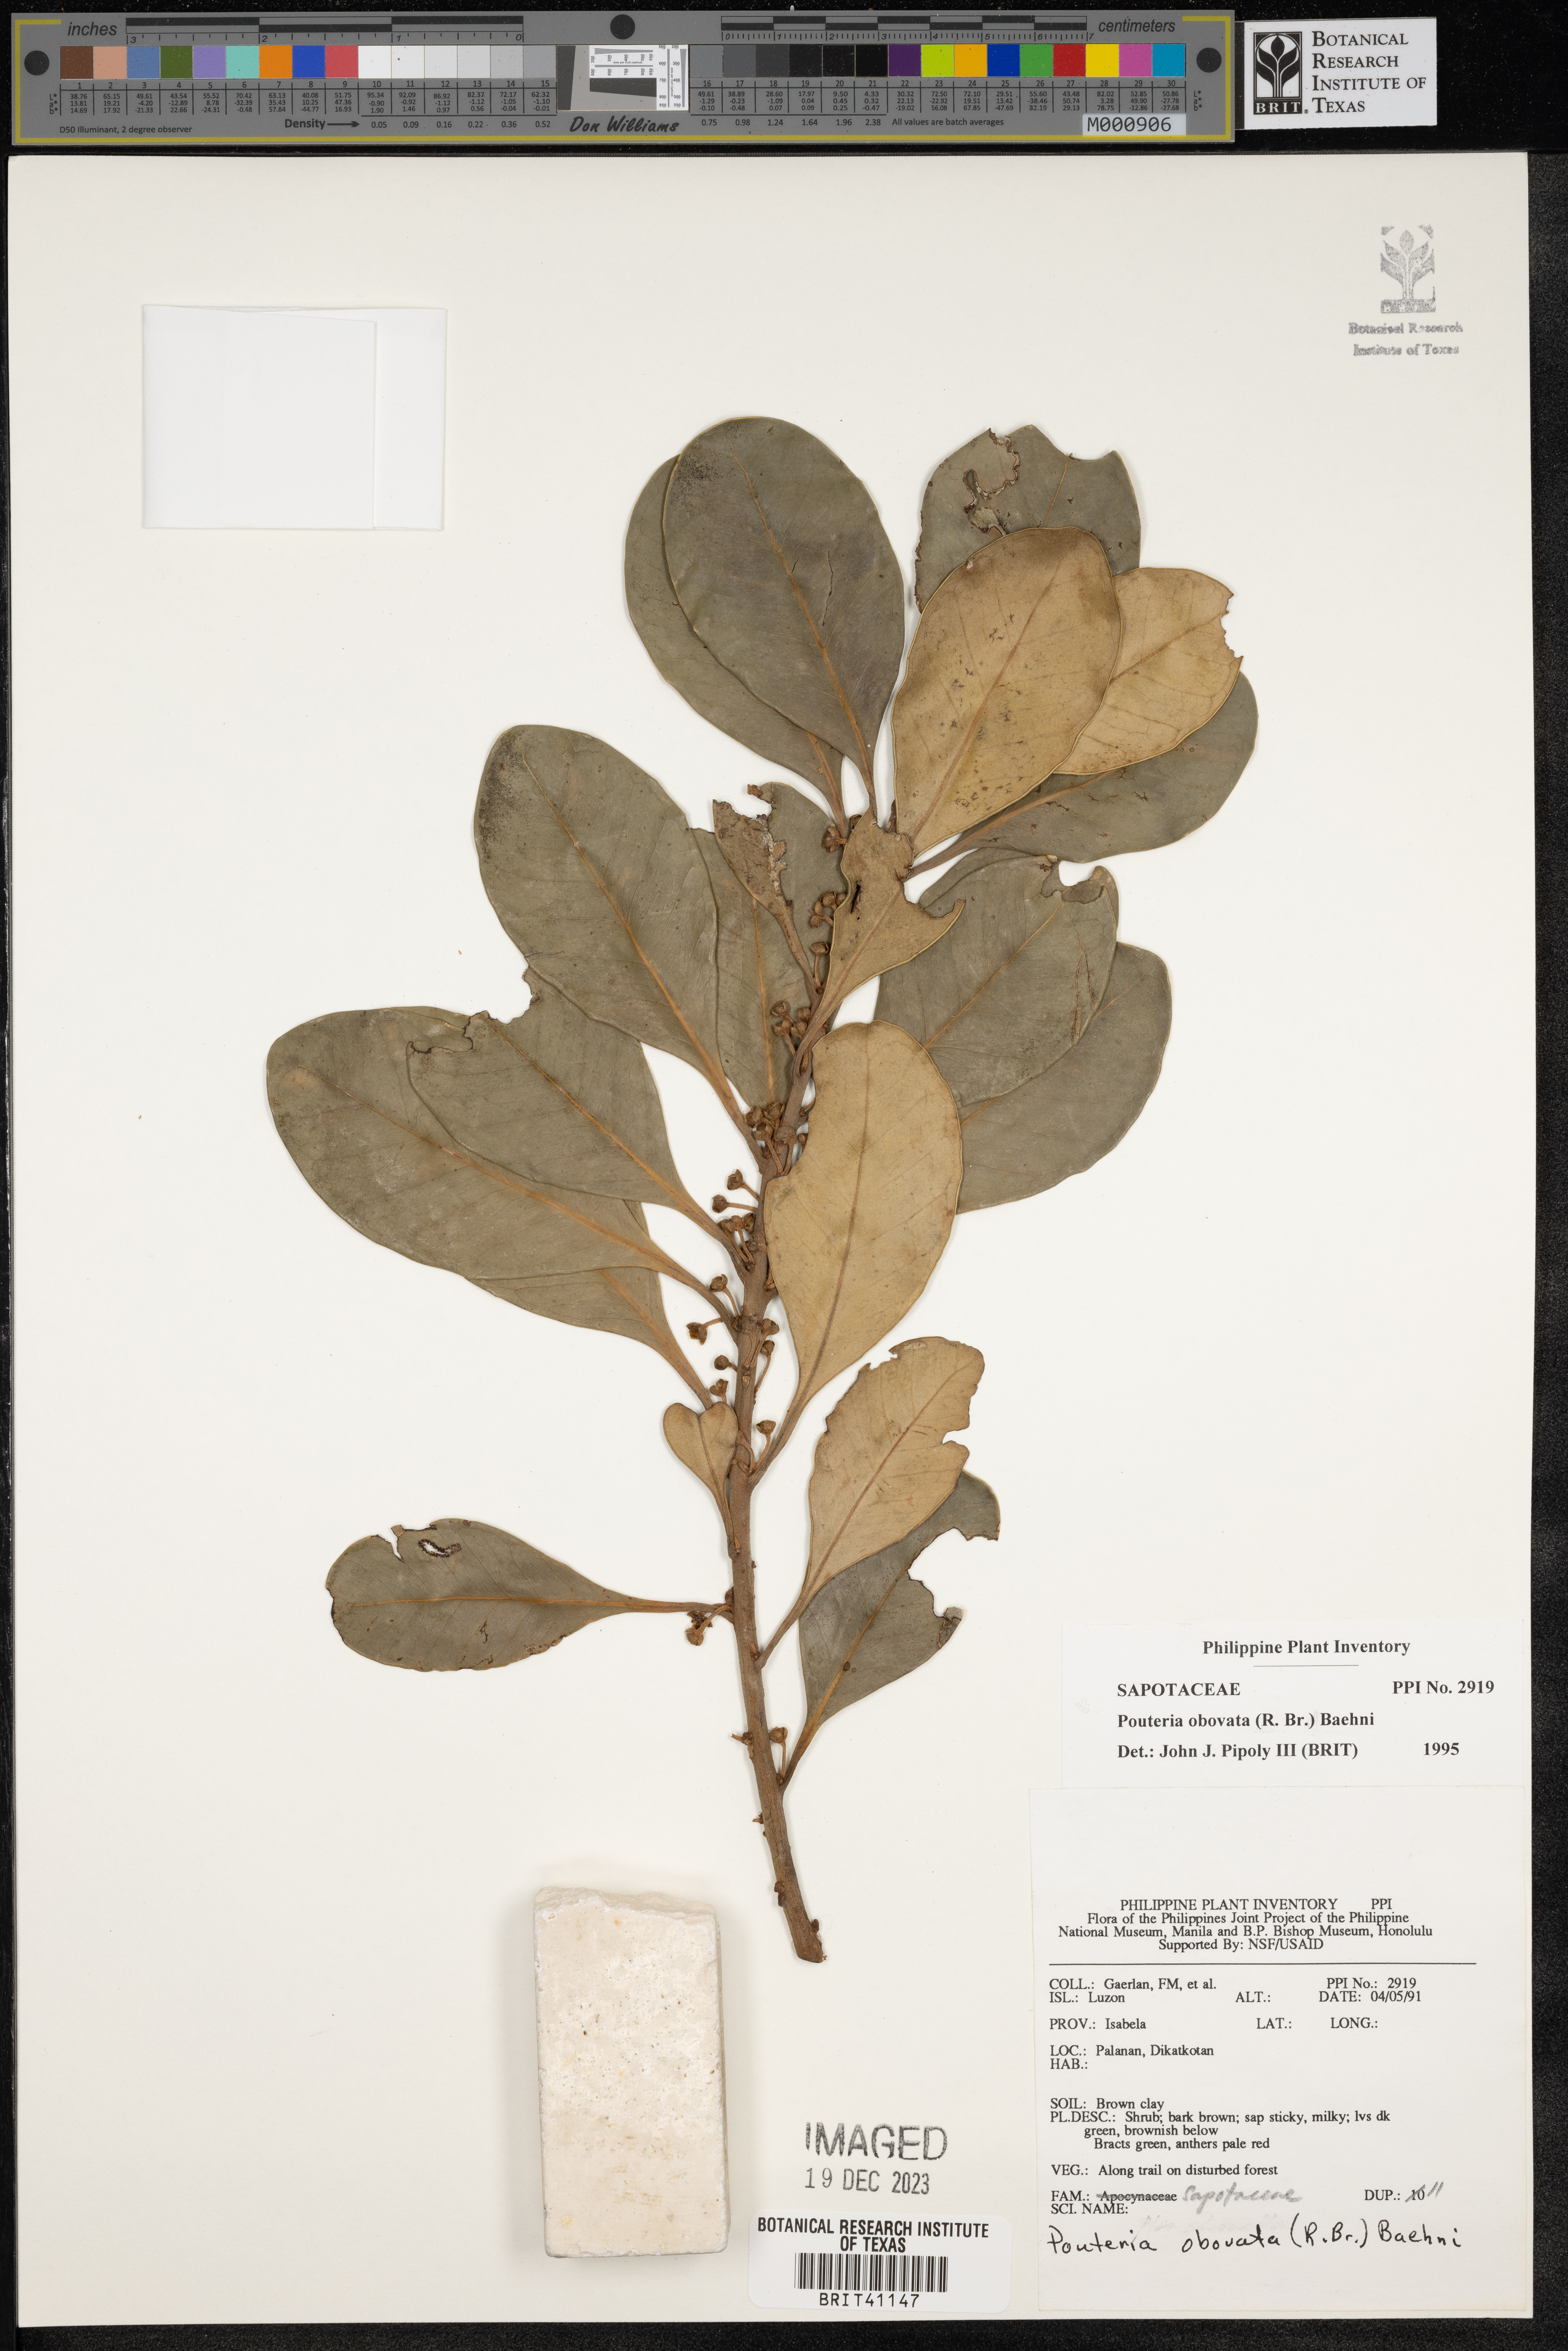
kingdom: Plantae
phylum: Tracheophyta
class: Magnoliopsida
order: Ericales
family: Sapotaceae
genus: Planchonella
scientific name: Planchonella obovata
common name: Black-ash
